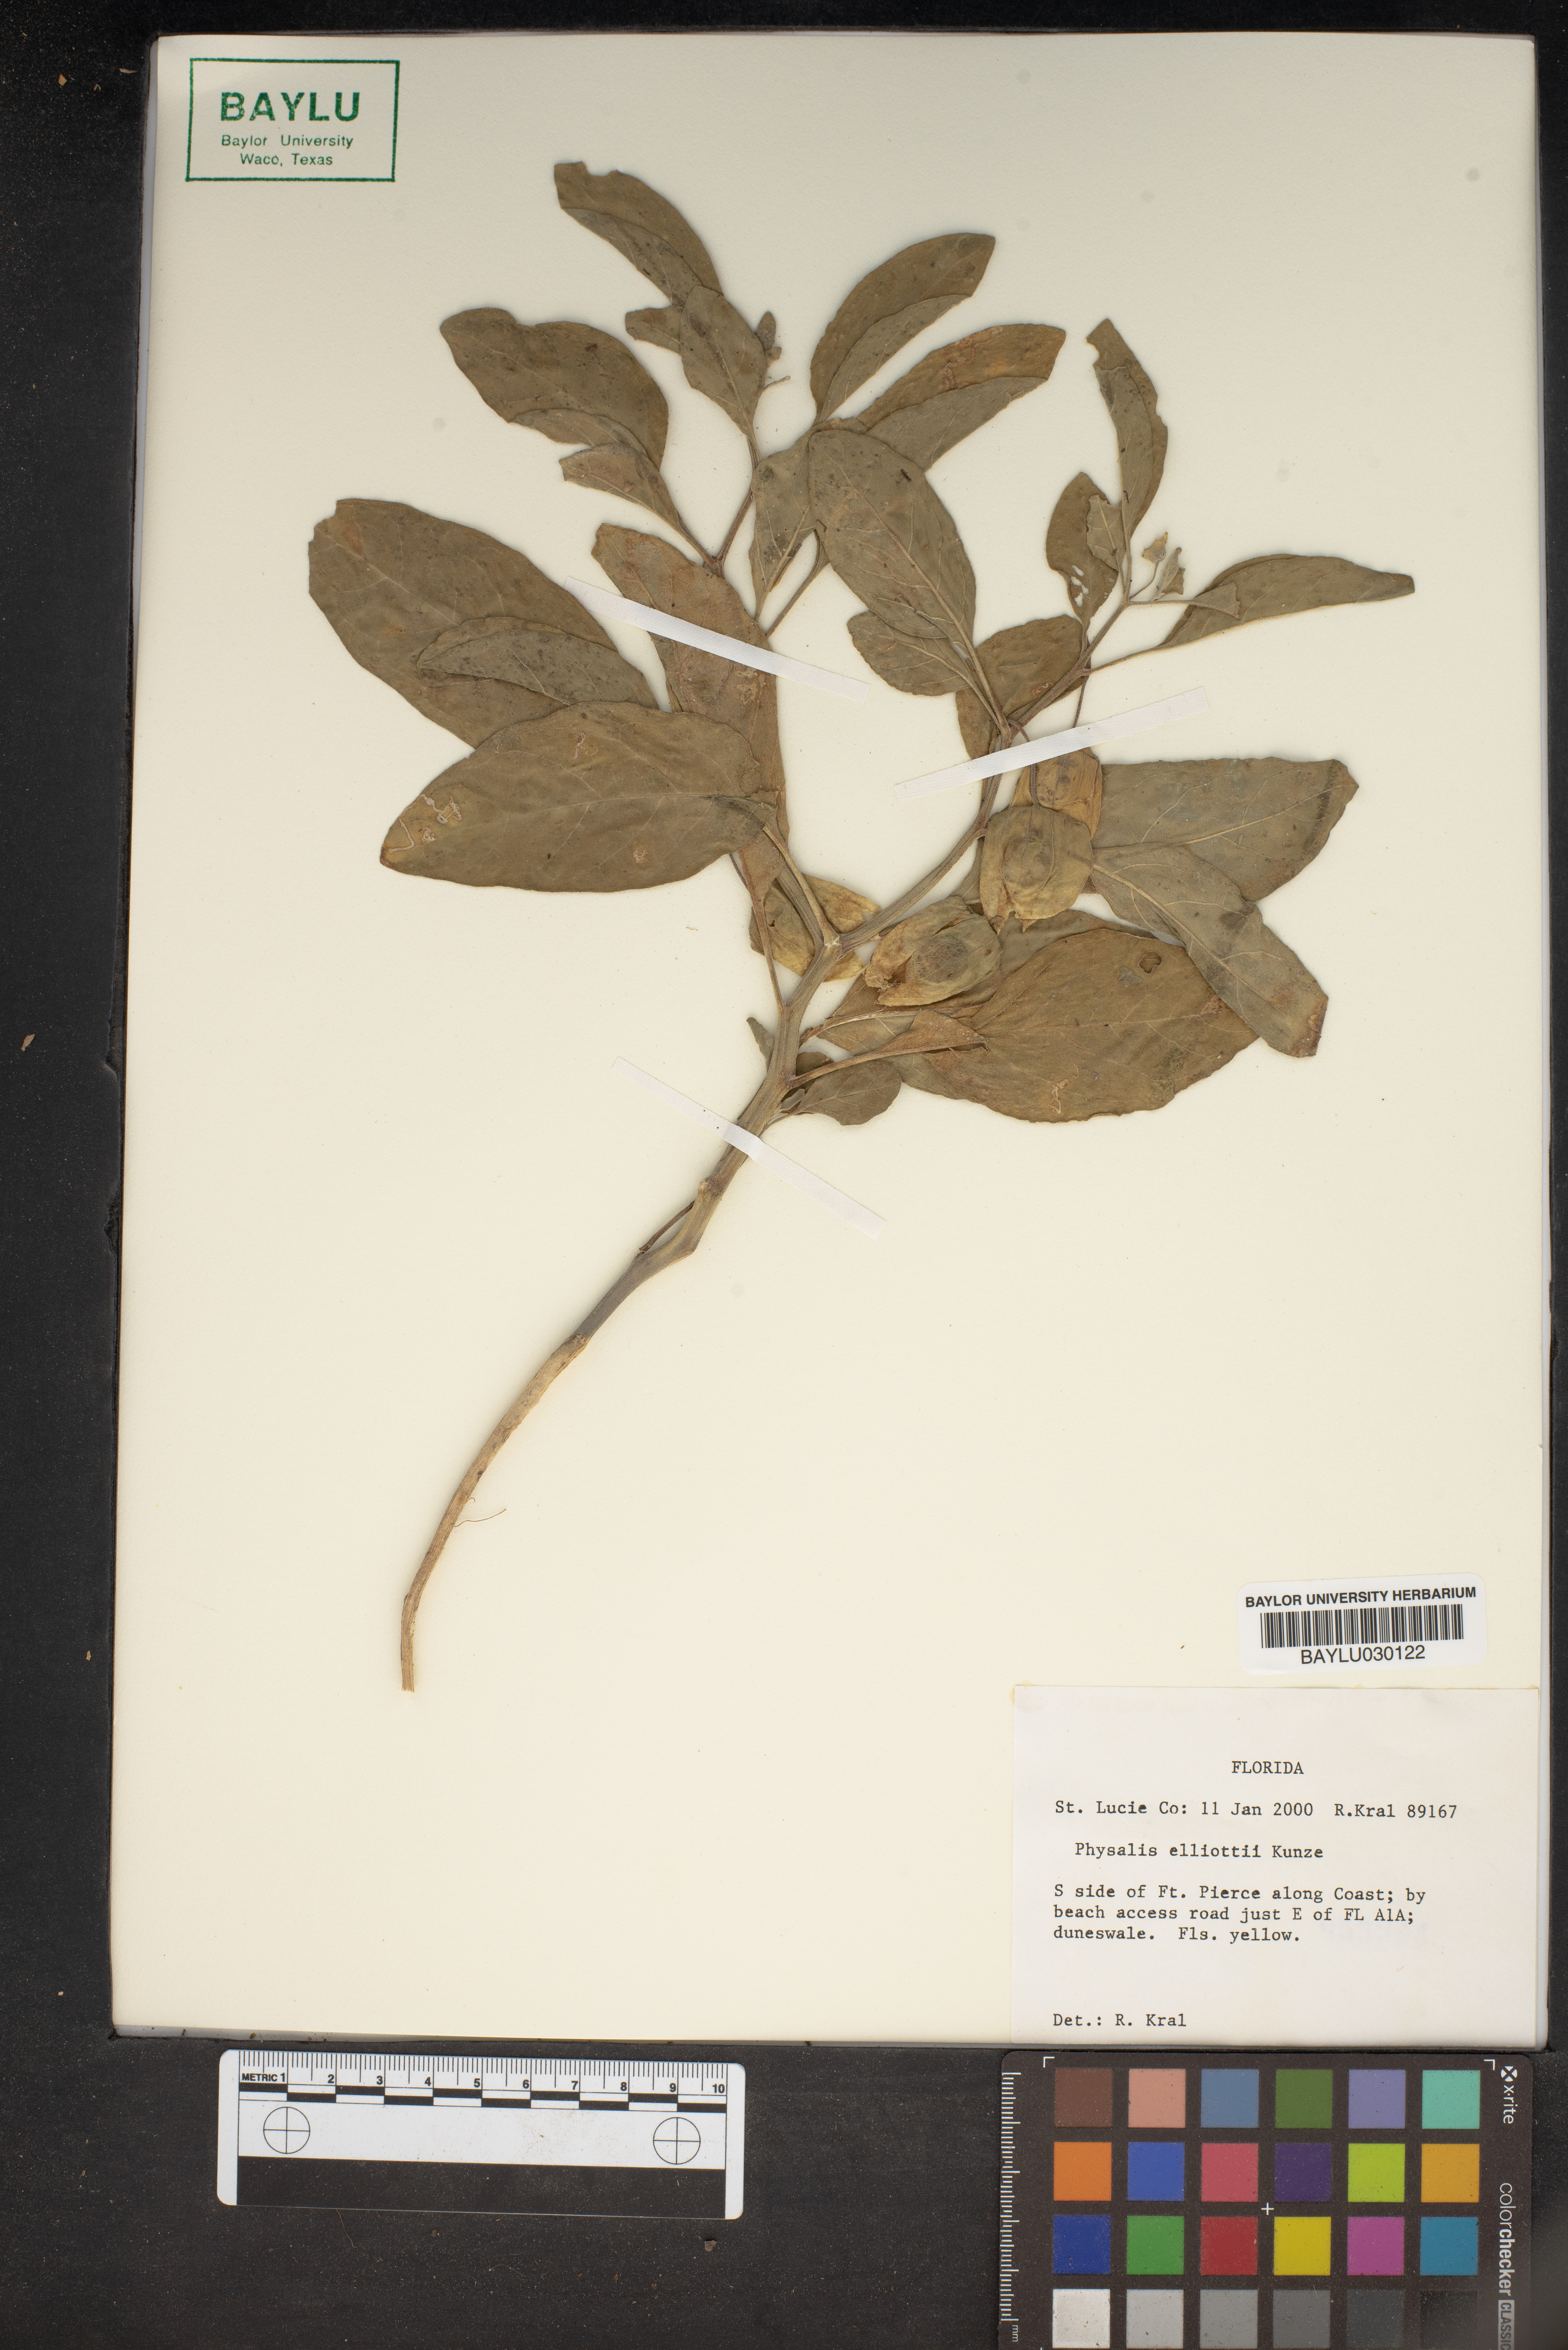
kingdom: Plantae
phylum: Tracheophyta
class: Magnoliopsida
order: Solanales
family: Solanaceae
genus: Physalis
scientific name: Physalis elliottii
